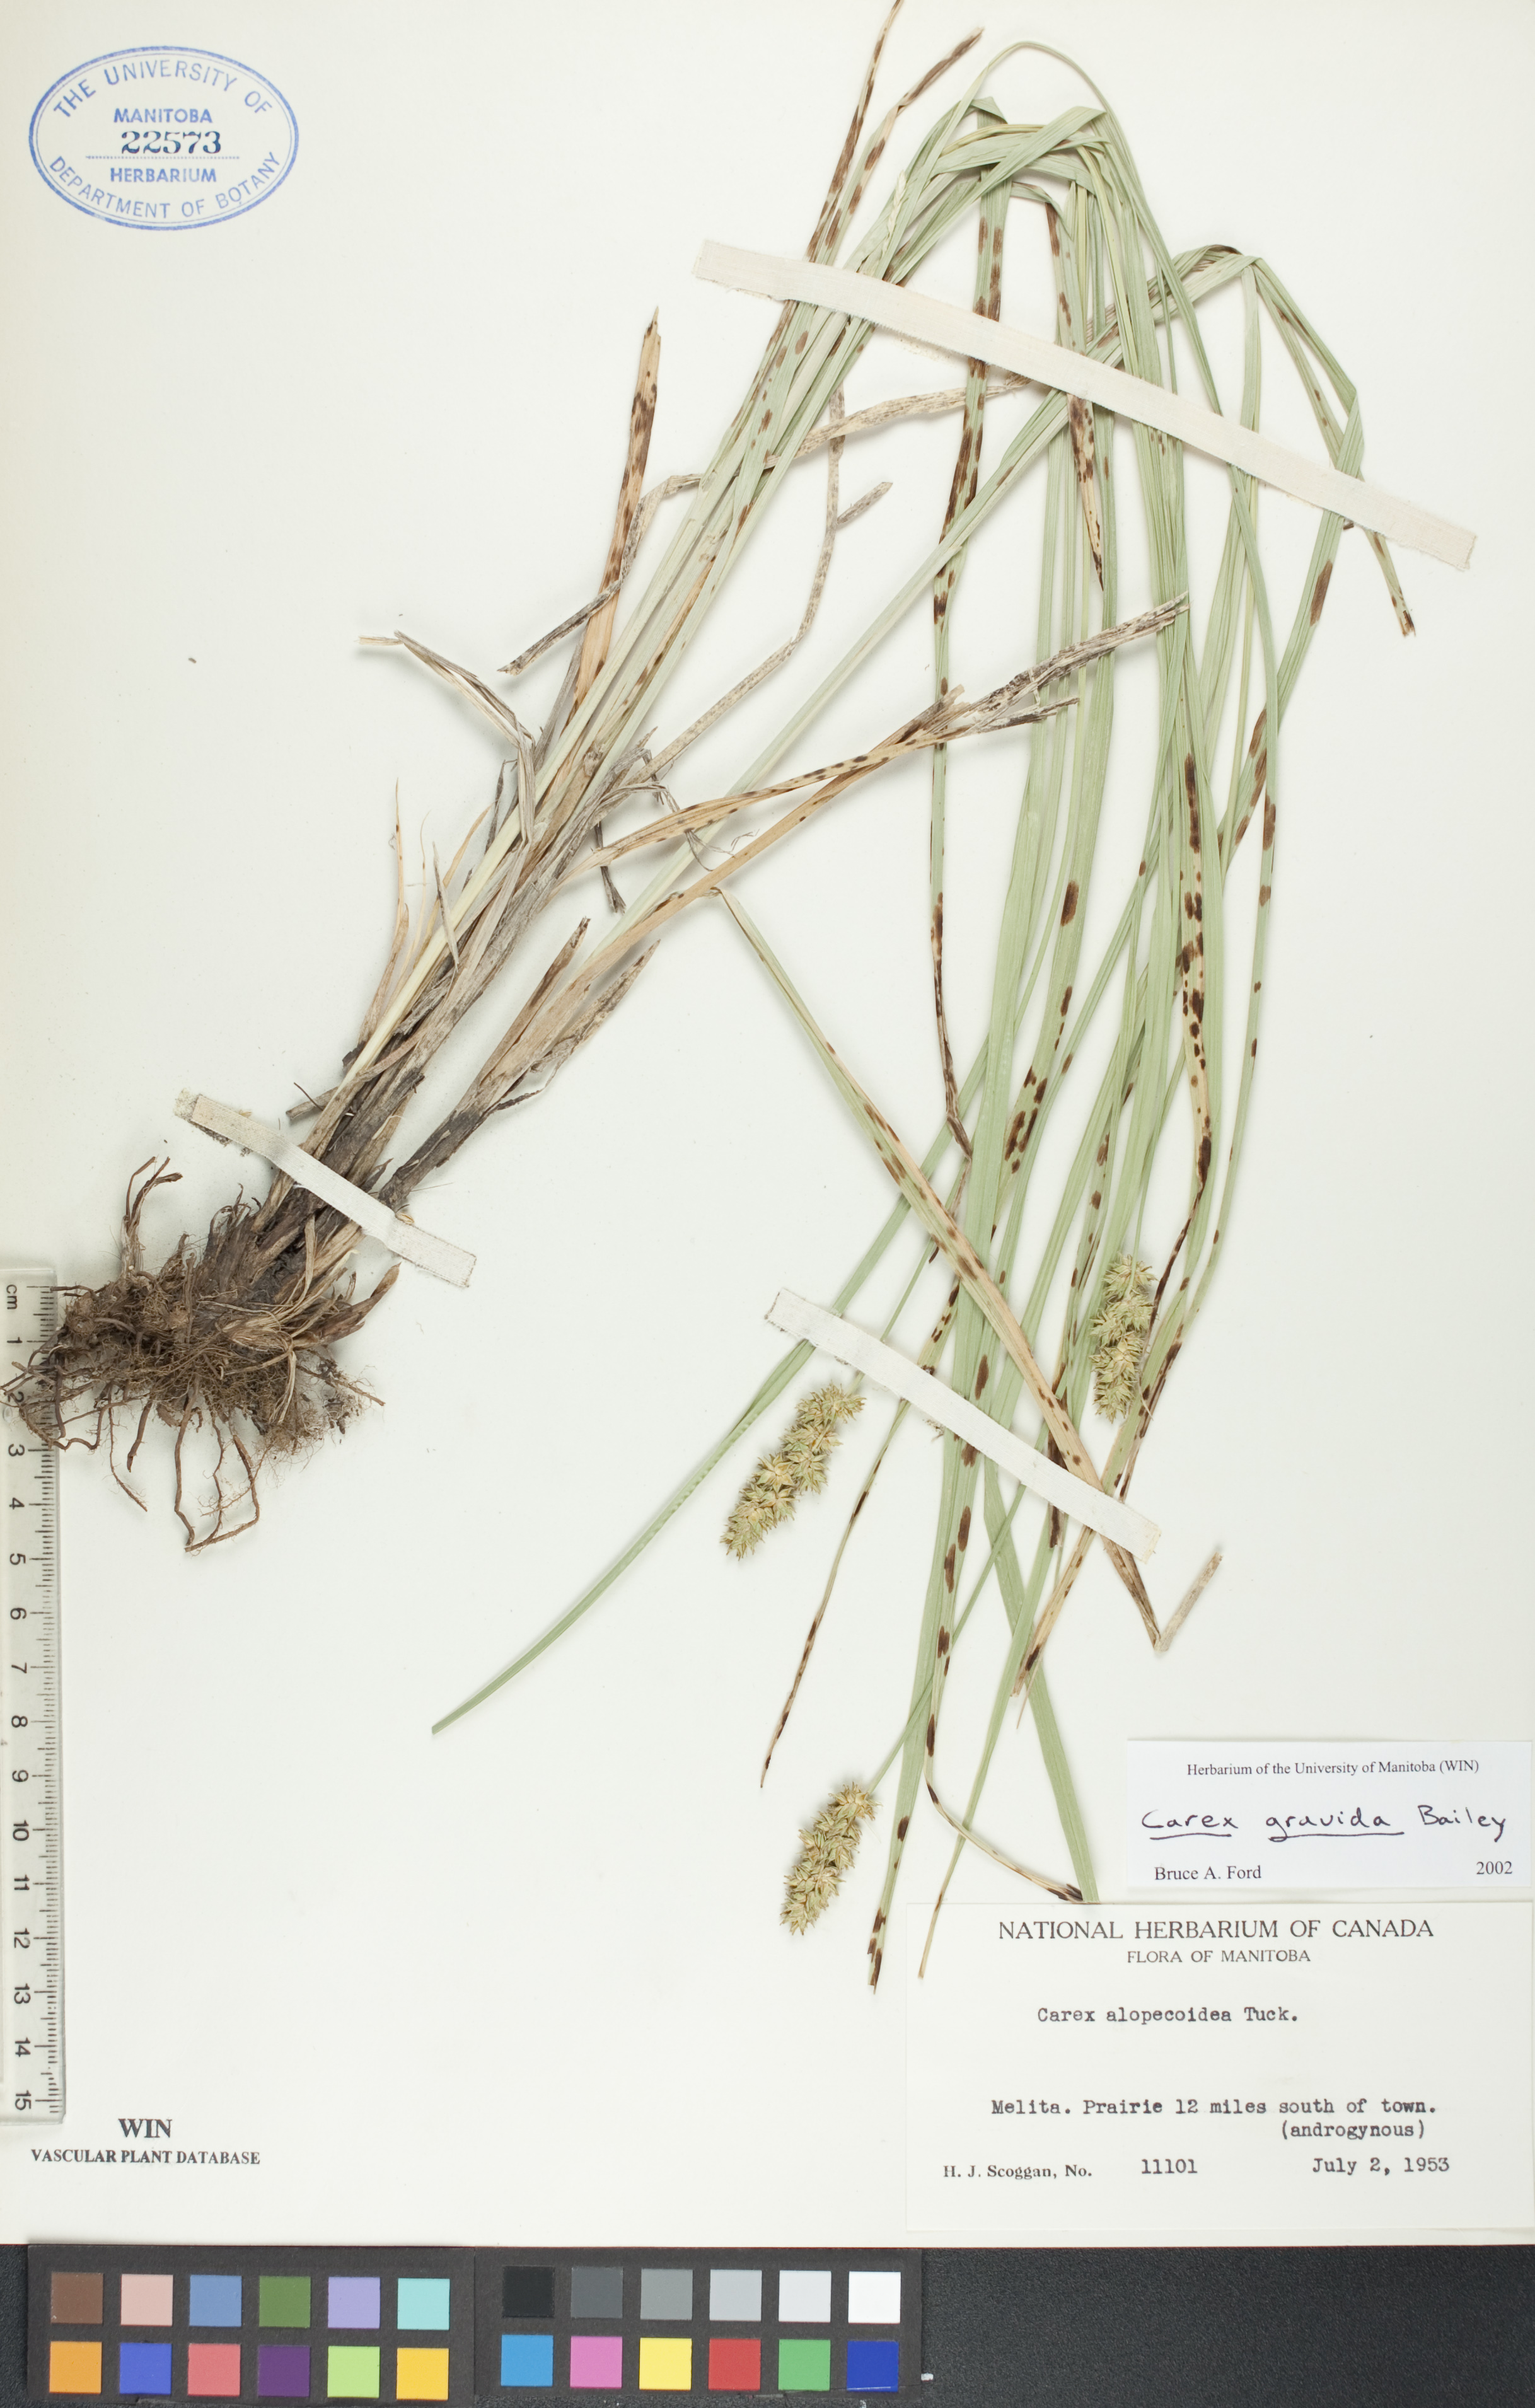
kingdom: Plantae
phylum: Tracheophyta
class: Liliopsida
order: Poales
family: Cyperaceae
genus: Carex
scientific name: Carex gravida
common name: Heavy sedge
